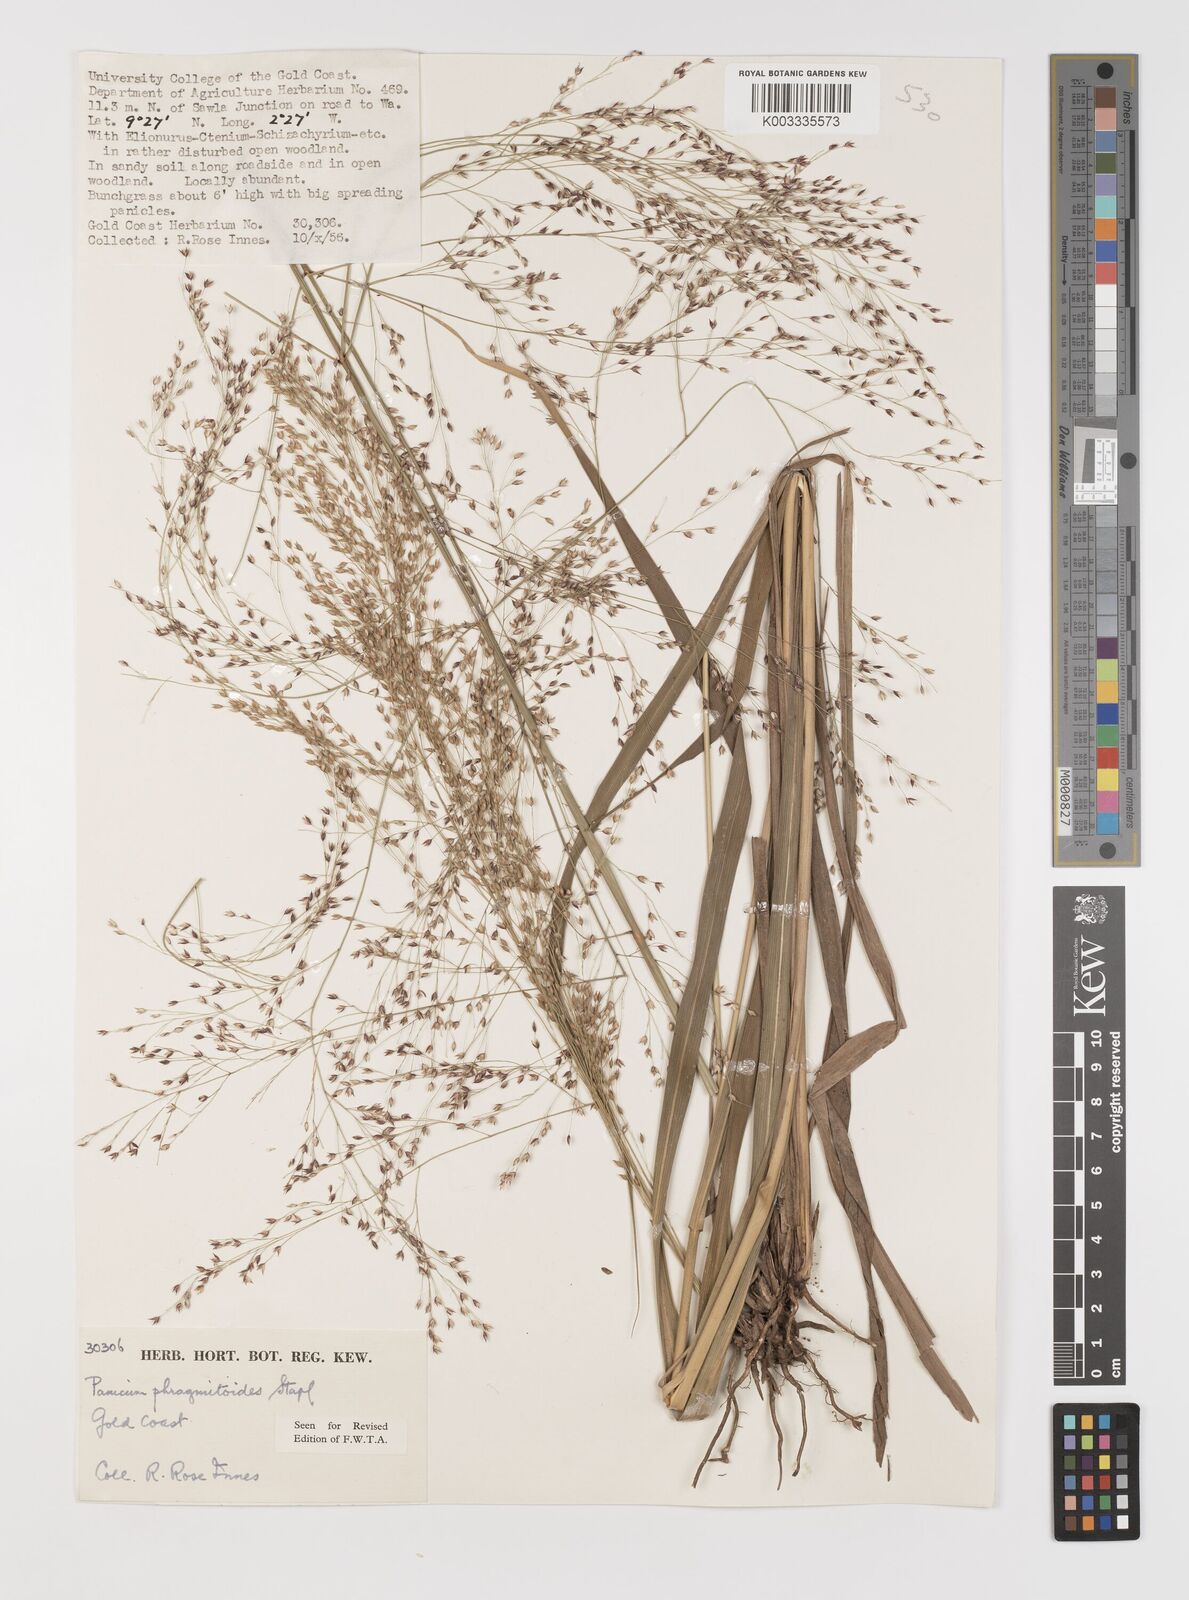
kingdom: Plantae
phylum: Tracheophyta
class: Liliopsida
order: Poales
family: Poaceae
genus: Panicum
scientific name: Panicum phragmitoides
